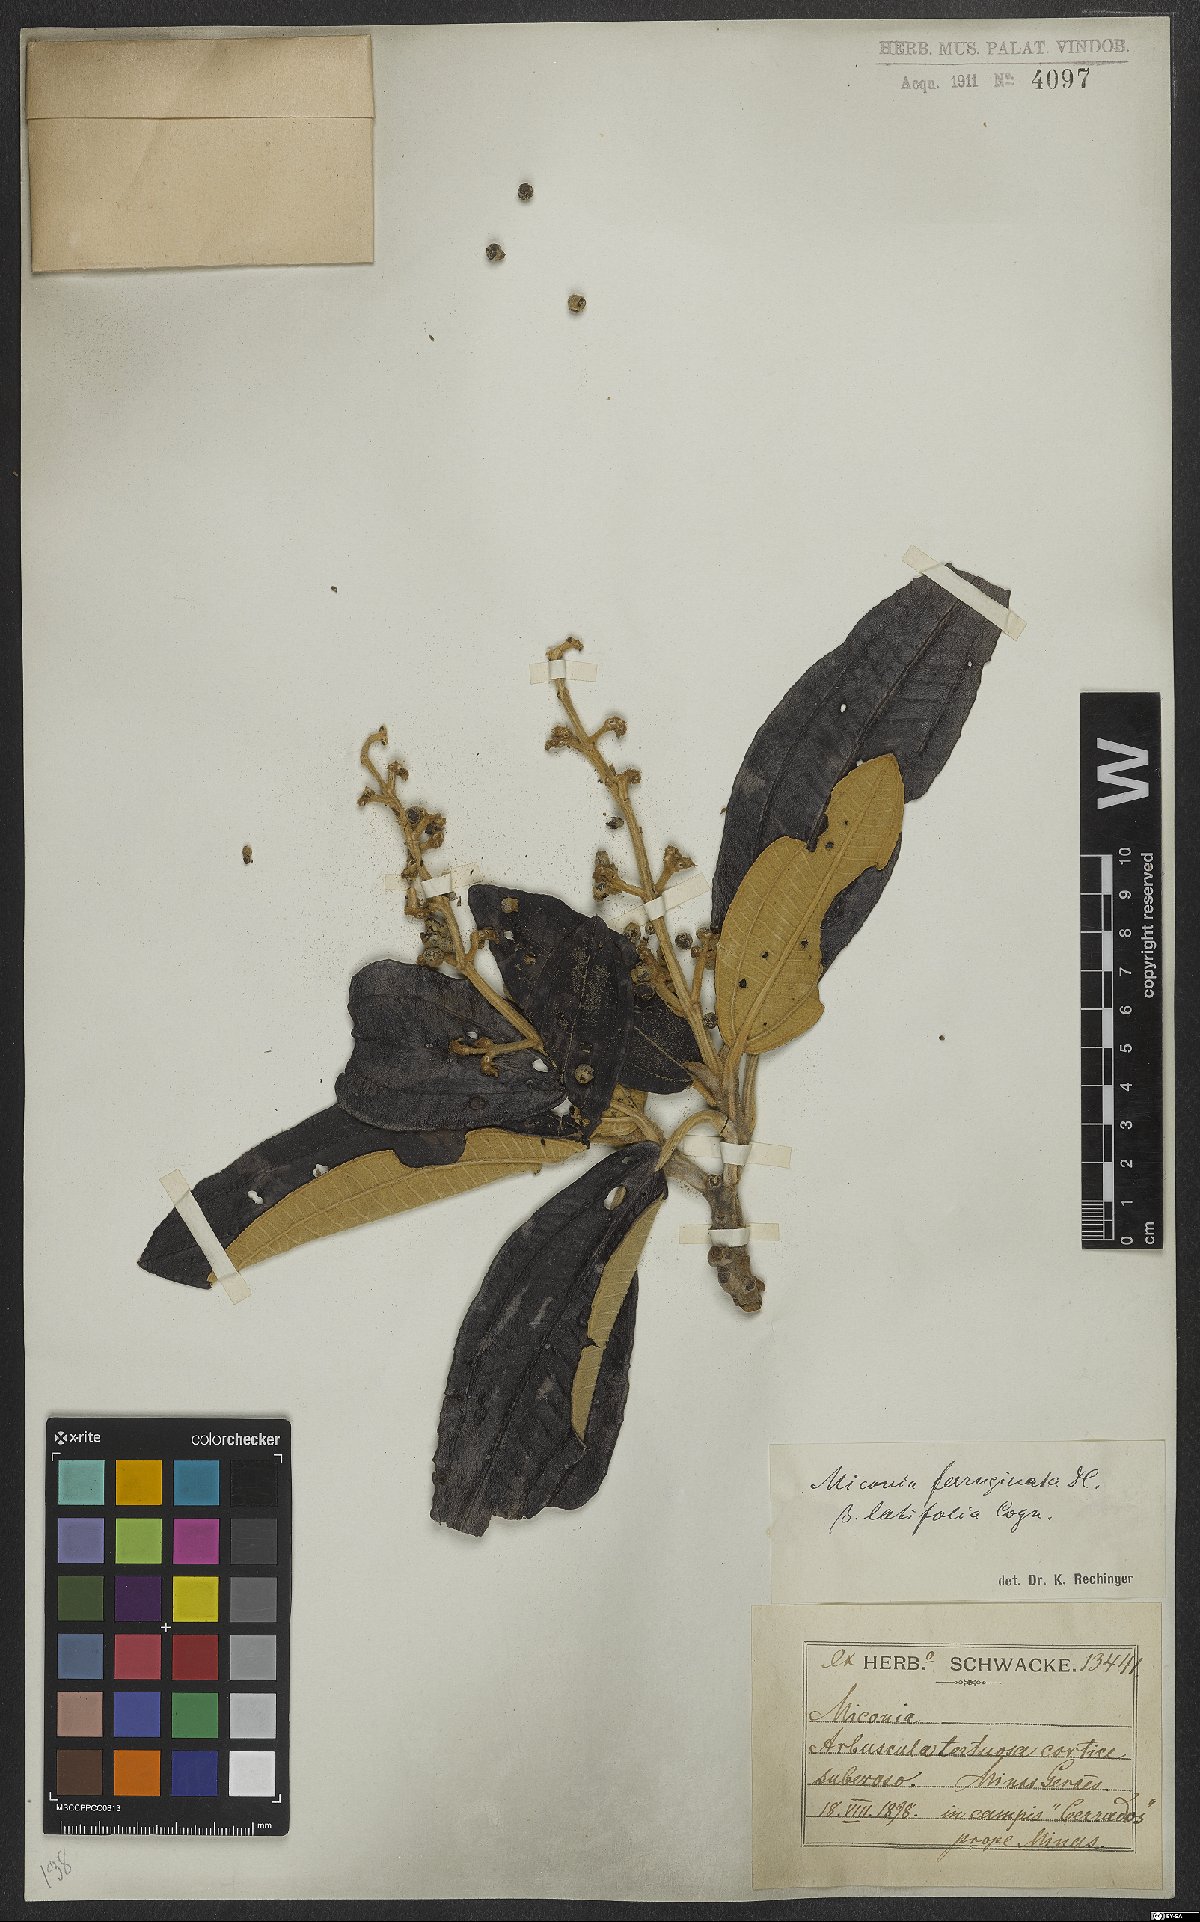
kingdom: Plantae
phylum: Tracheophyta
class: Magnoliopsida
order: Myrtales
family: Melastomataceae
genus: Miconia
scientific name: Miconia ferruginata
